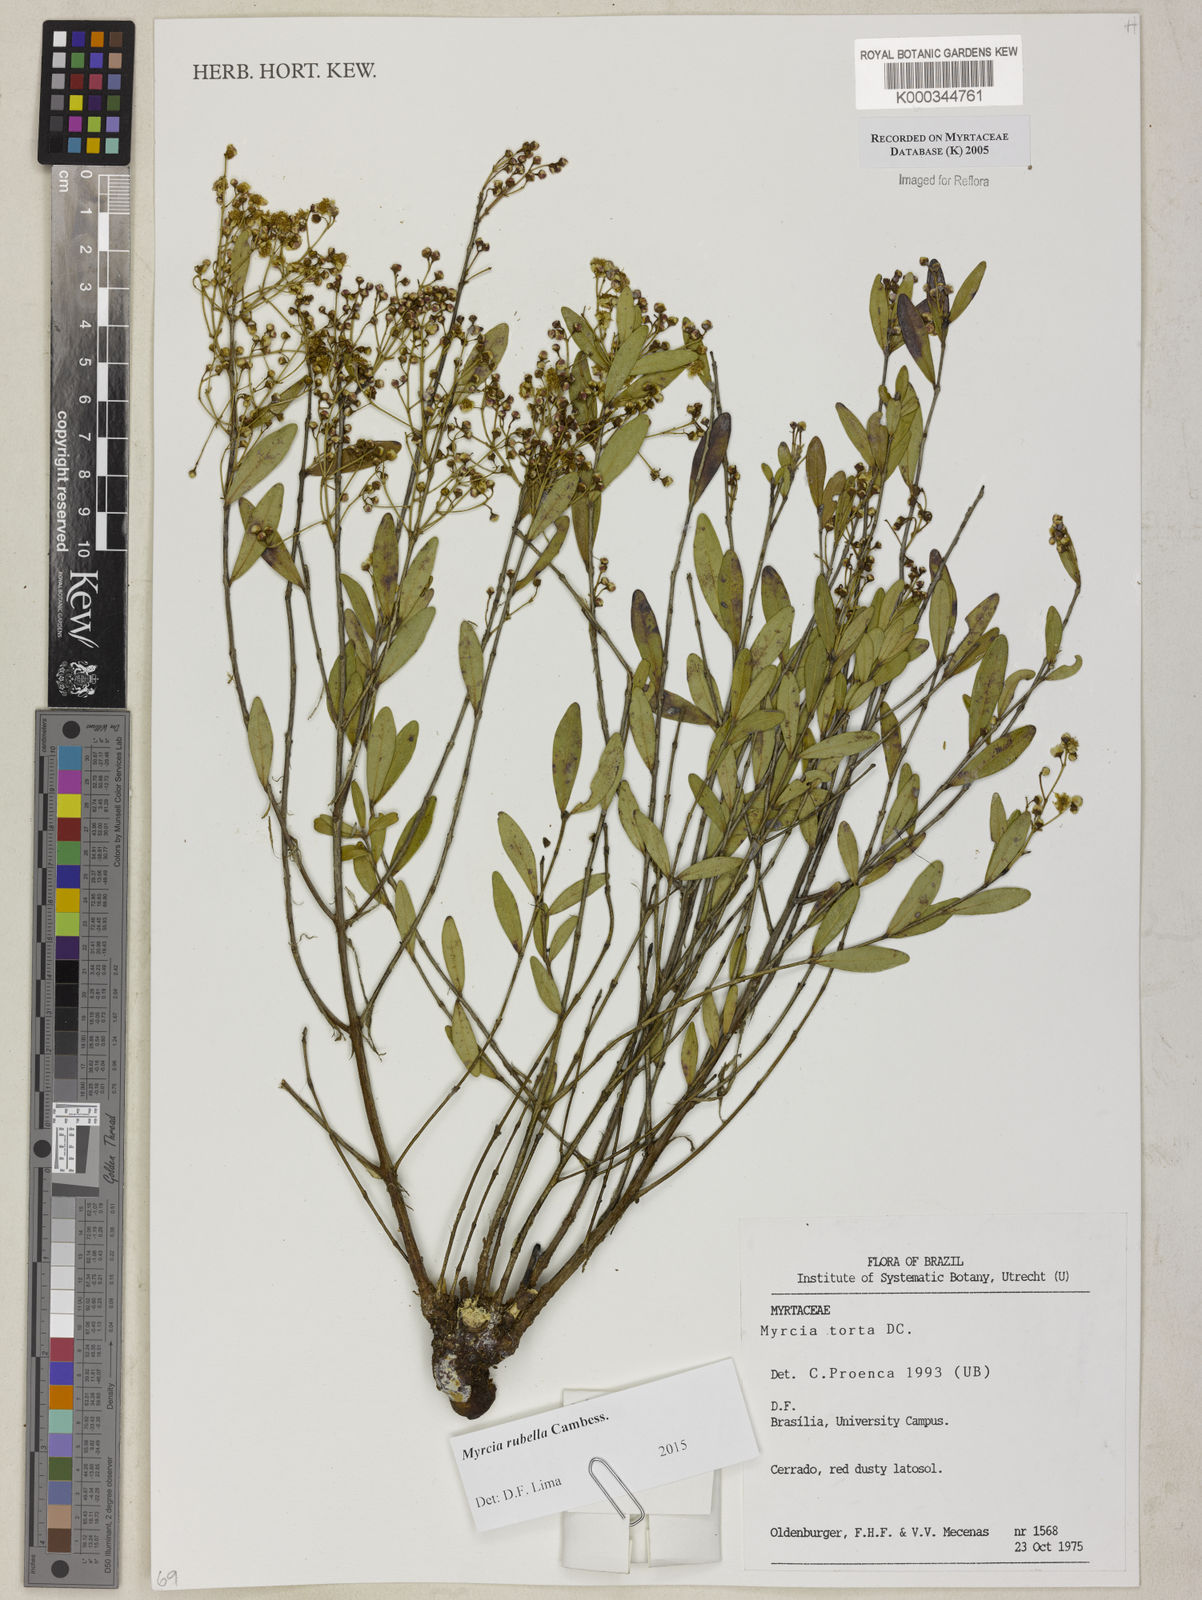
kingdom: Plantae
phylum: Tracheophyta
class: Magnoliopsida
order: Myrtales
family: Myrtaceae
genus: Myrcia
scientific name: Myrcia guianensis
